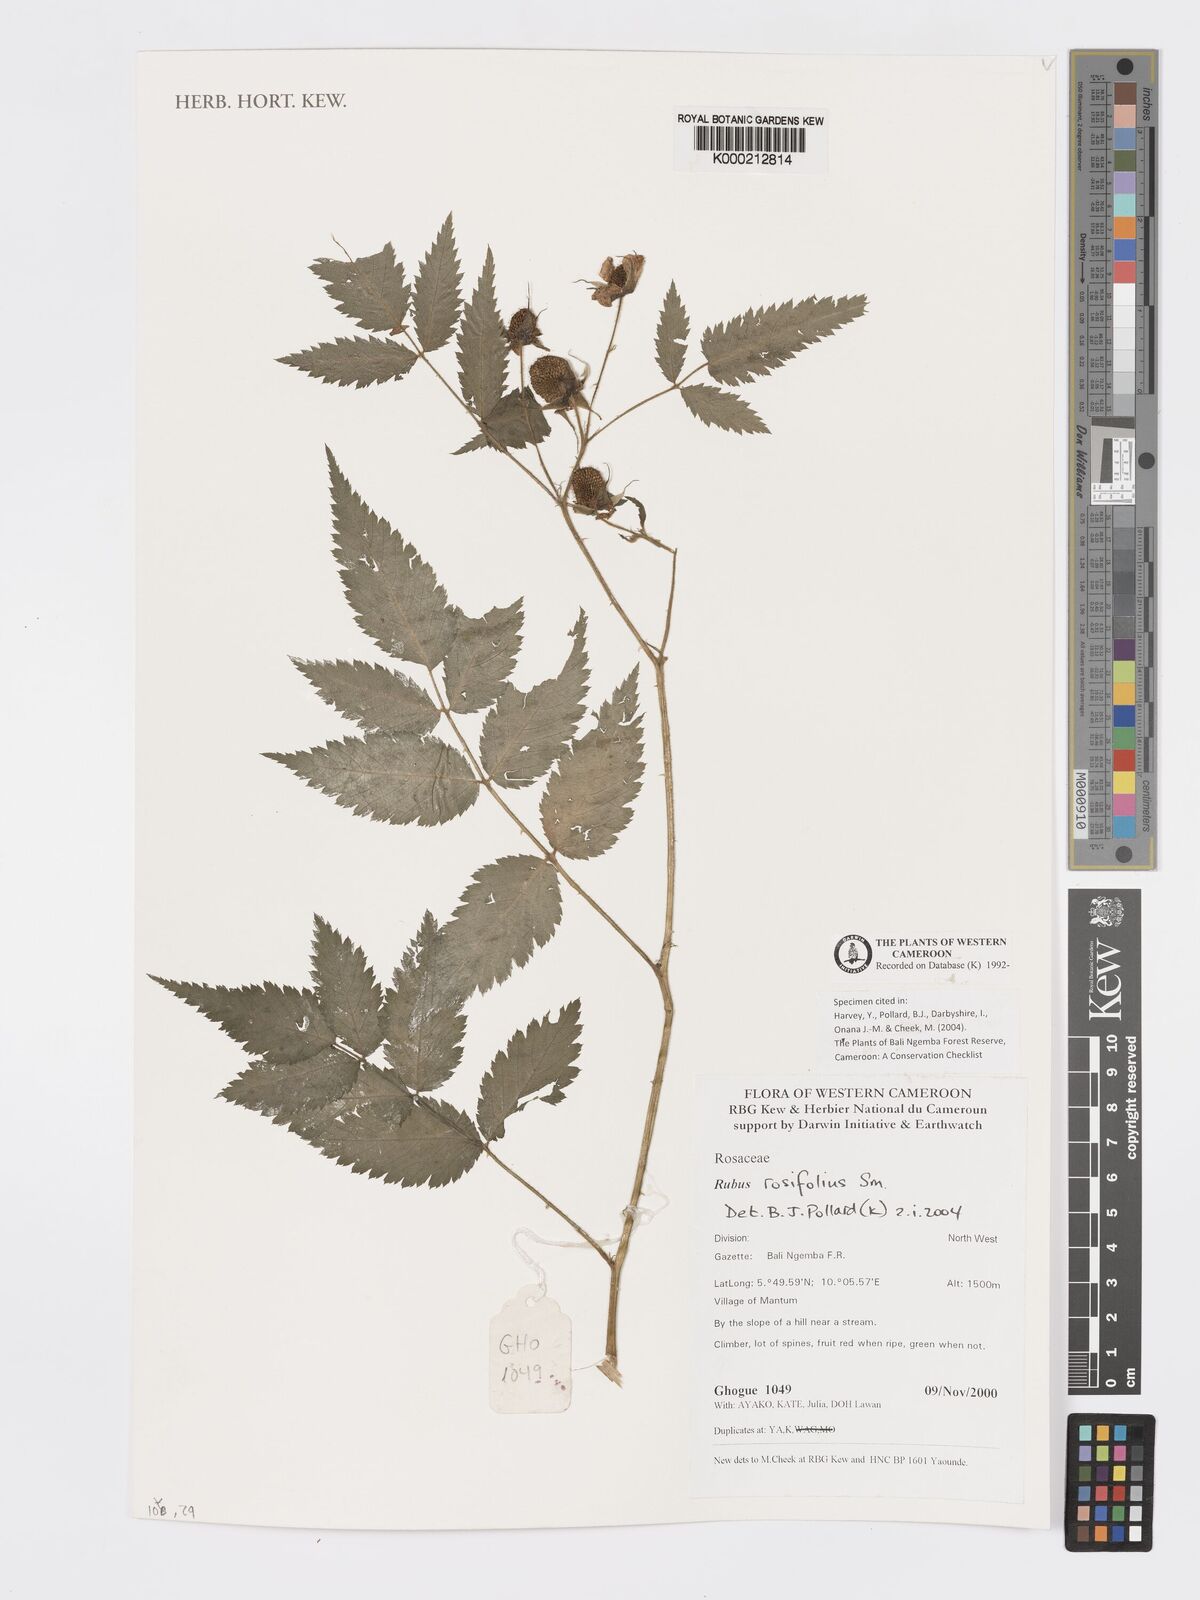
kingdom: Plantae
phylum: Tracheophyta
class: Magnoliopsida
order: Rosales
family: Rosaceae
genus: Rubus
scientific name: Rubus rosifolius
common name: Roseleaf raspberry
